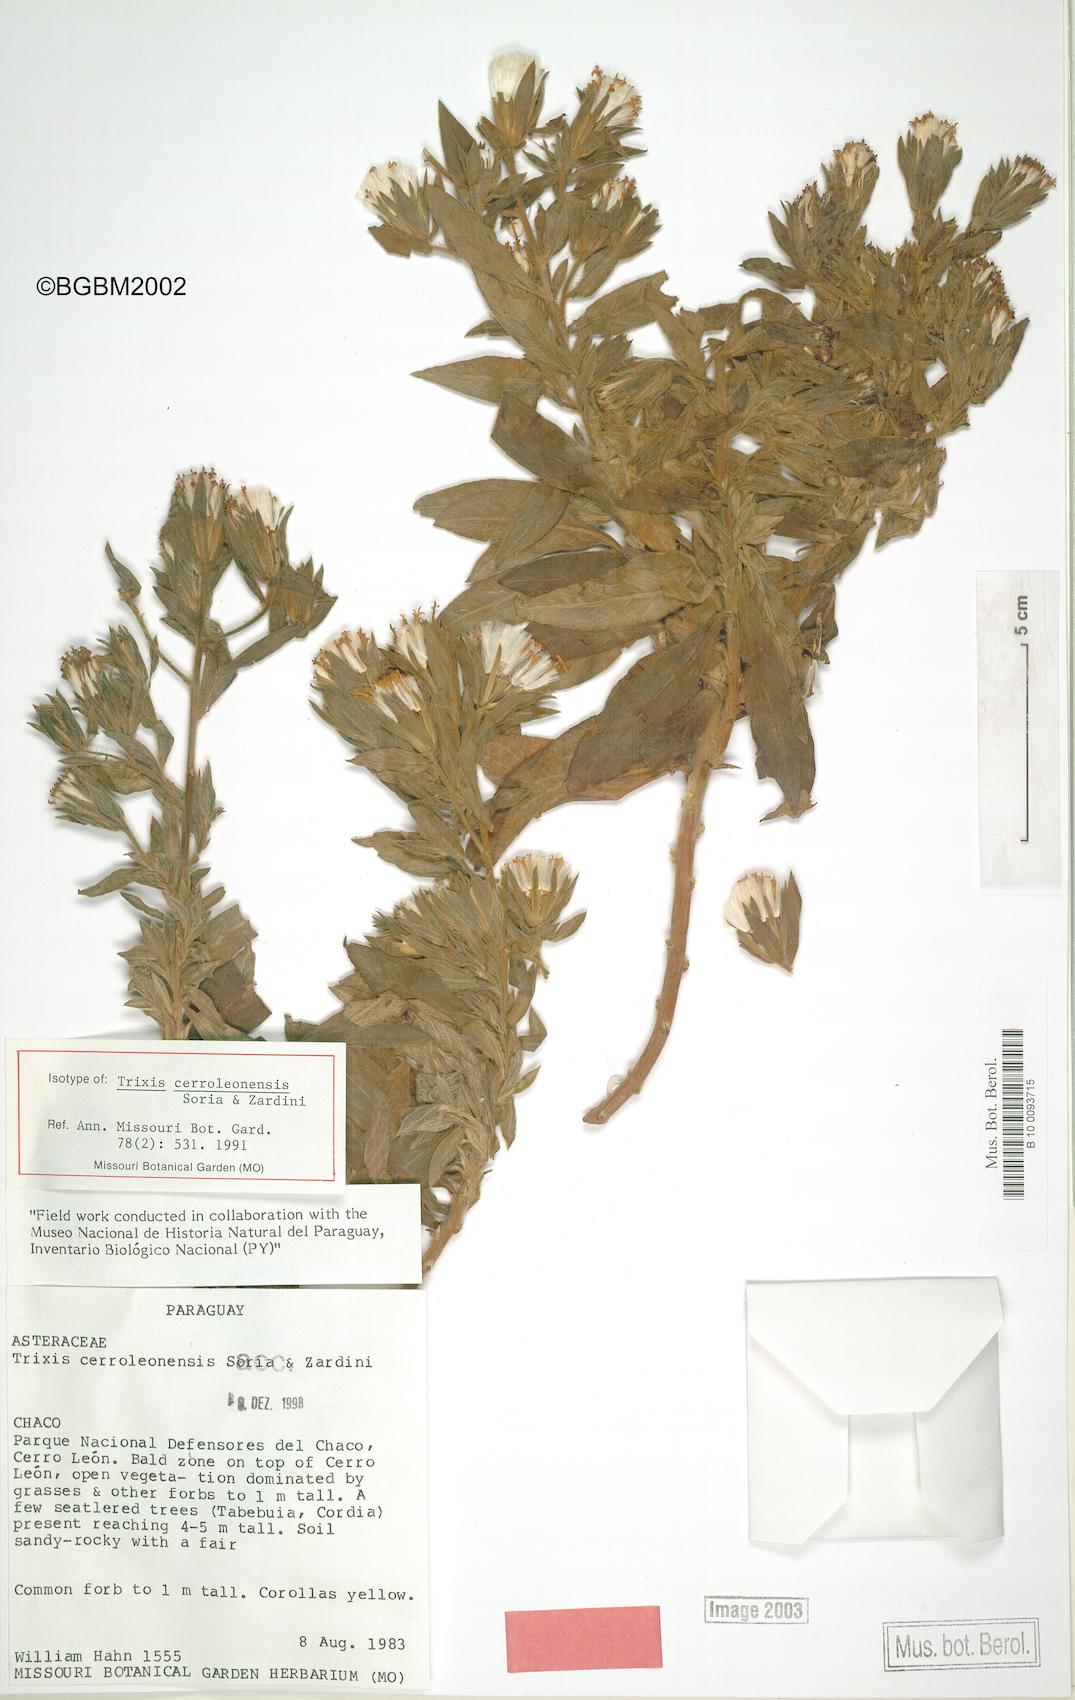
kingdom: Plantae
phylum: Tracheophyta
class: Magnoliopsida
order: Asterales
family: Asteraceae
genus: Trixis
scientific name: Trixis ophiorhiza
